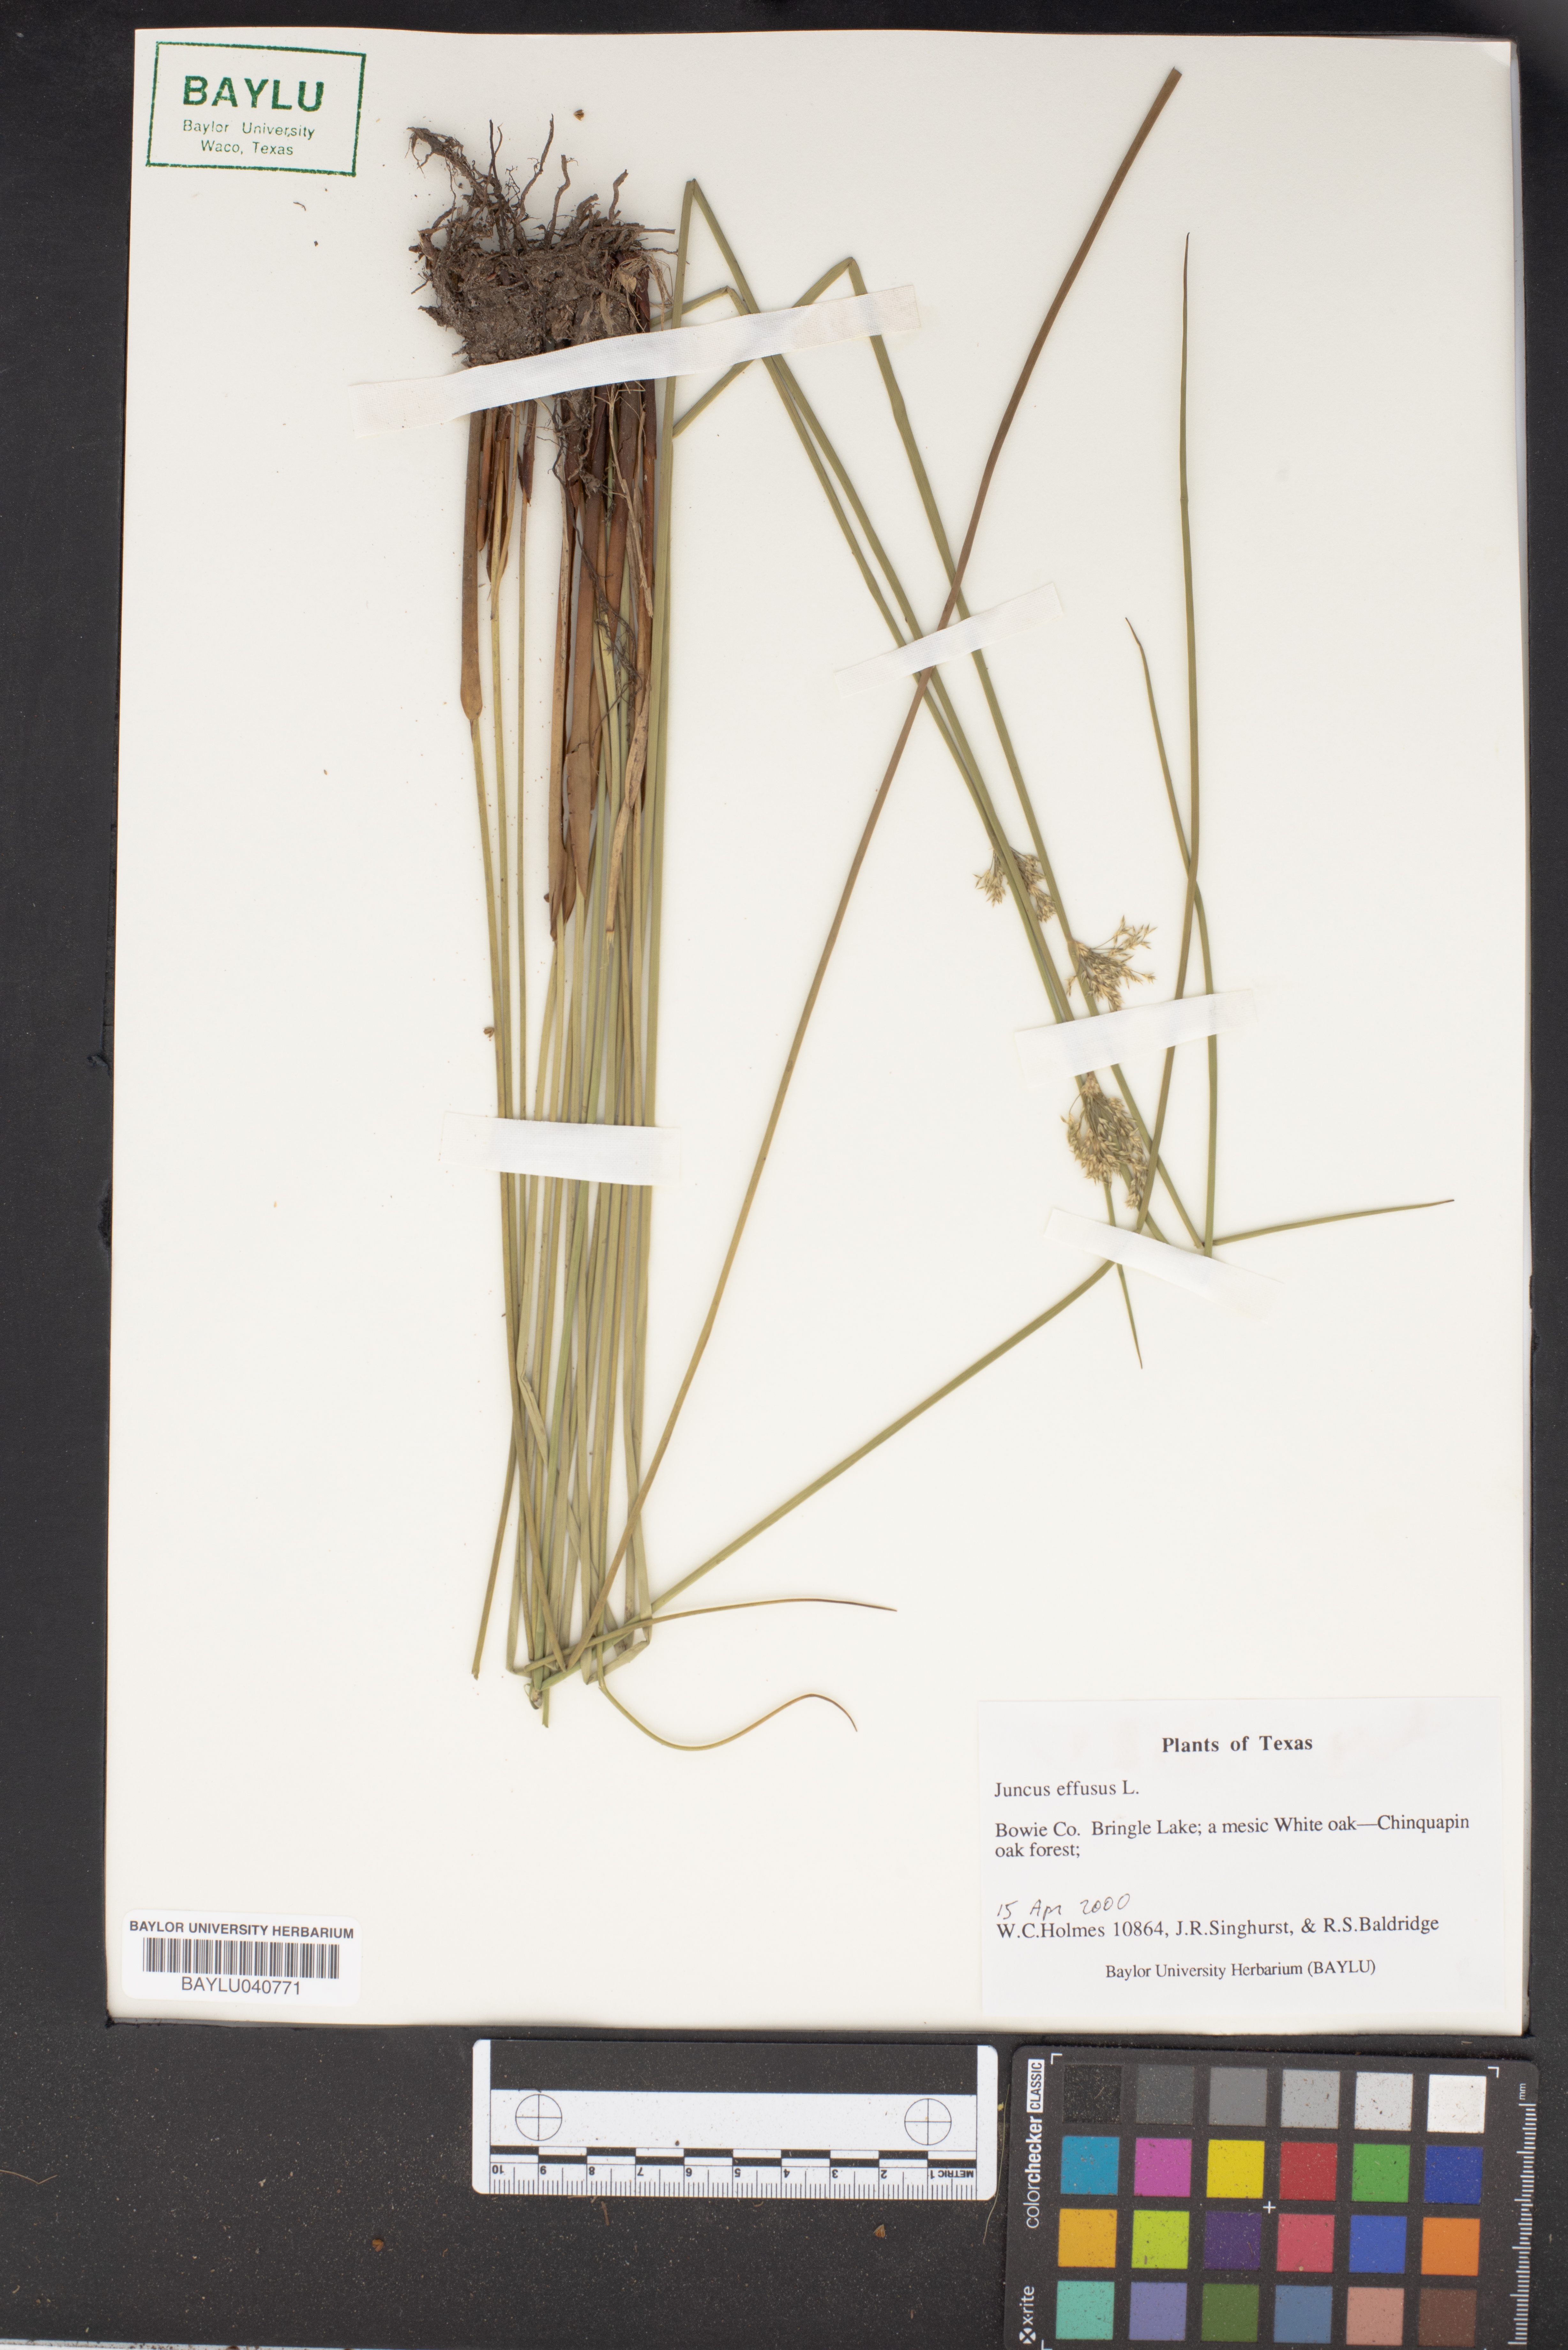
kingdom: Plantae
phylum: Tracheophyta
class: Liliopsida
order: Poales
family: Juncaceae
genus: Juncus
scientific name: Juncus effusus
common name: Soft rush
